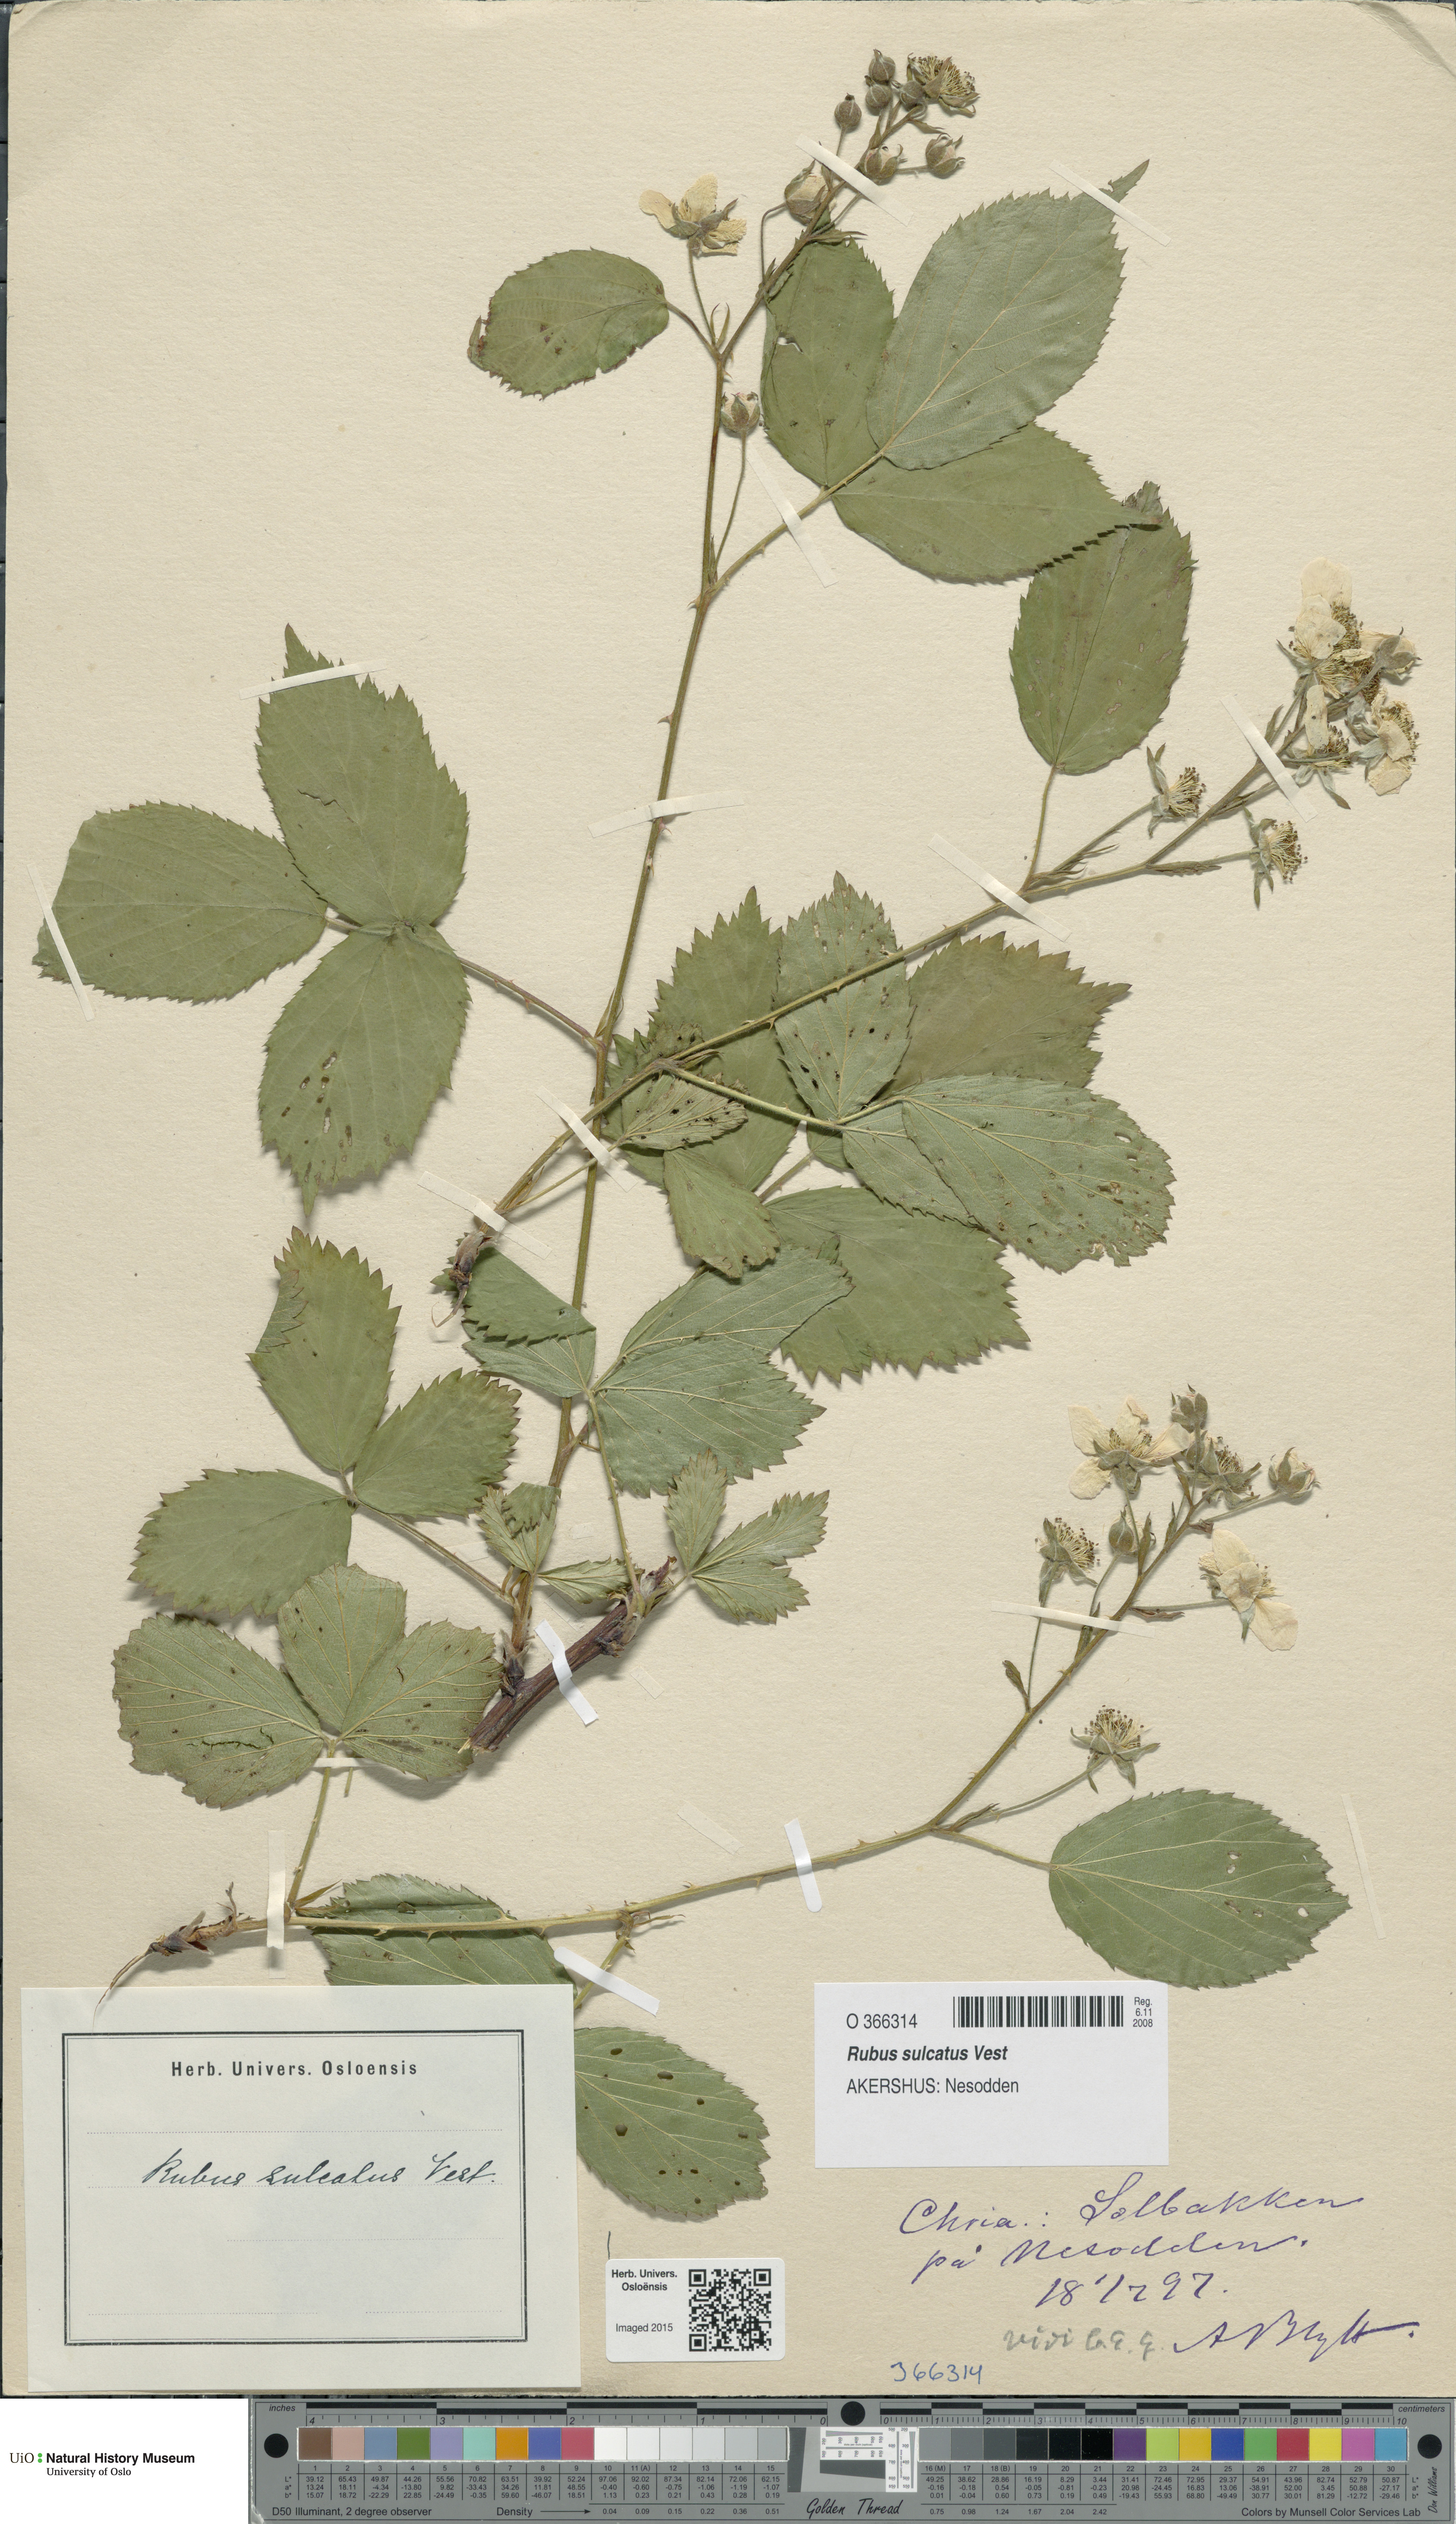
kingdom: Plantae
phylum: Tracheophyta
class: Magnoliopsida
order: Rosales
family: Rosaceae
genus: Rubus
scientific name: Rubus sulcatus
